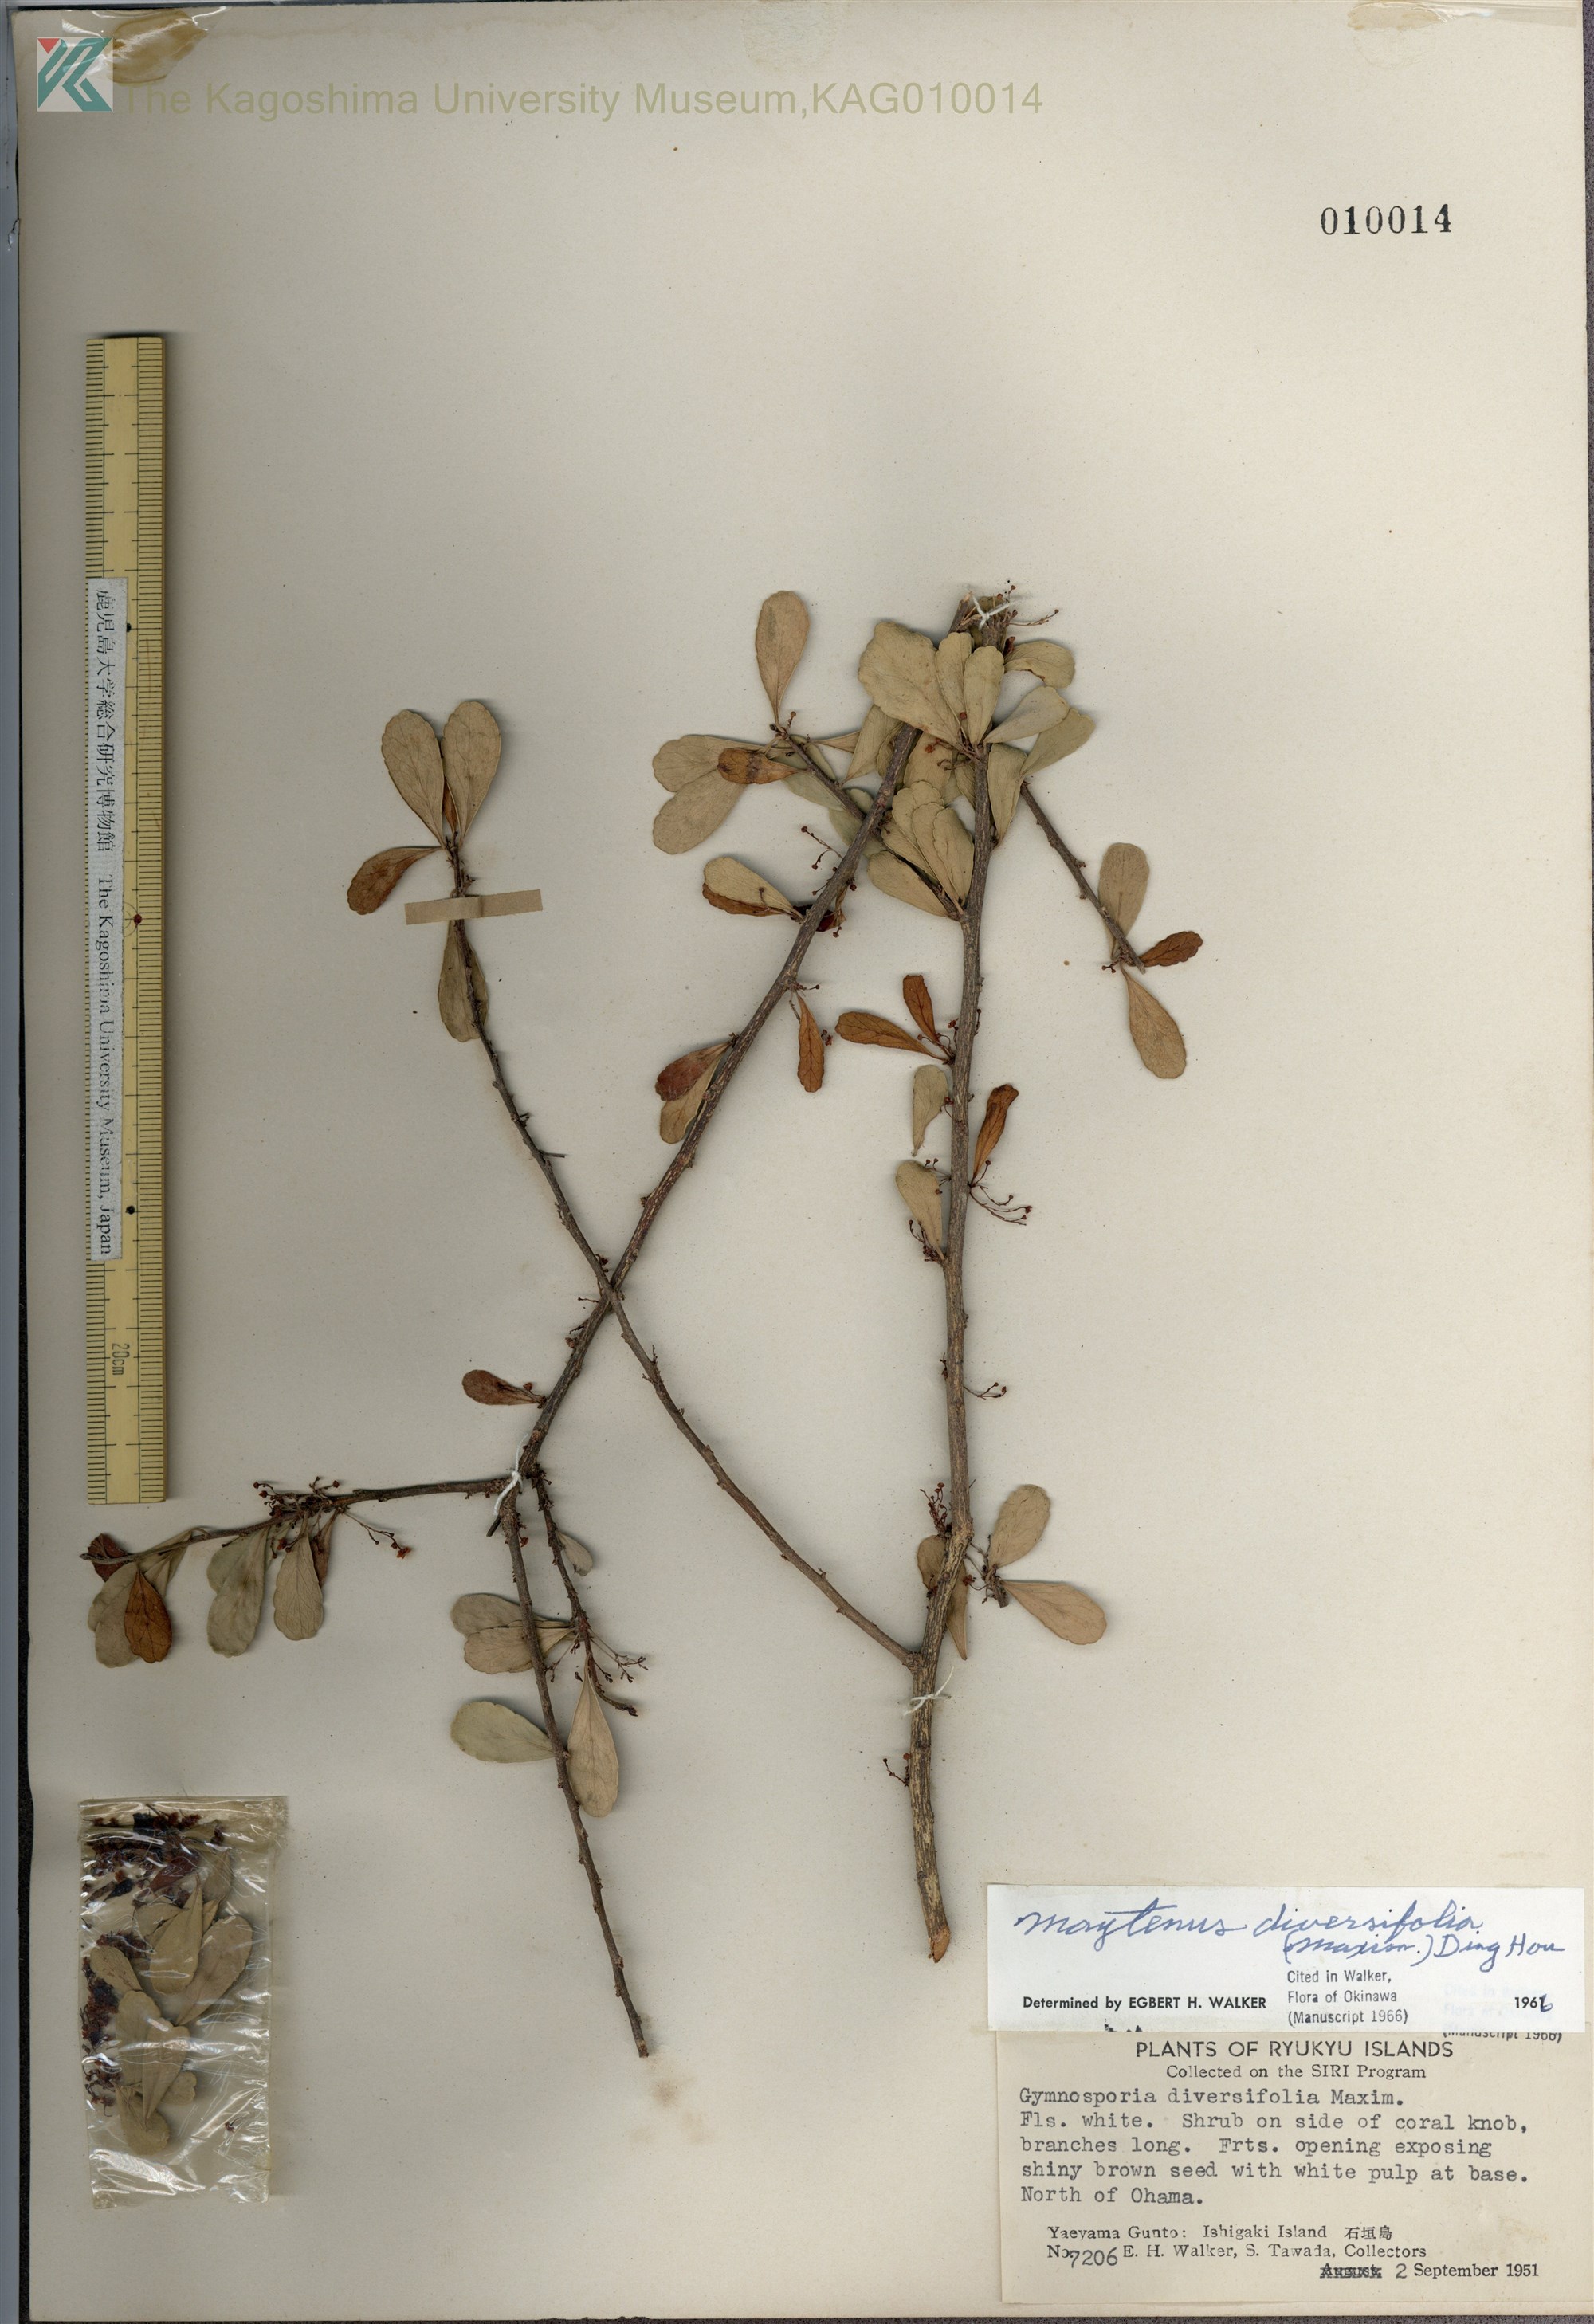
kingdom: Plantae
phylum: Tracheophyta
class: Magnoliopsida
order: Celastrales
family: Celastraceae
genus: Gymnosporia
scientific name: Gymnosporia diversifolia
